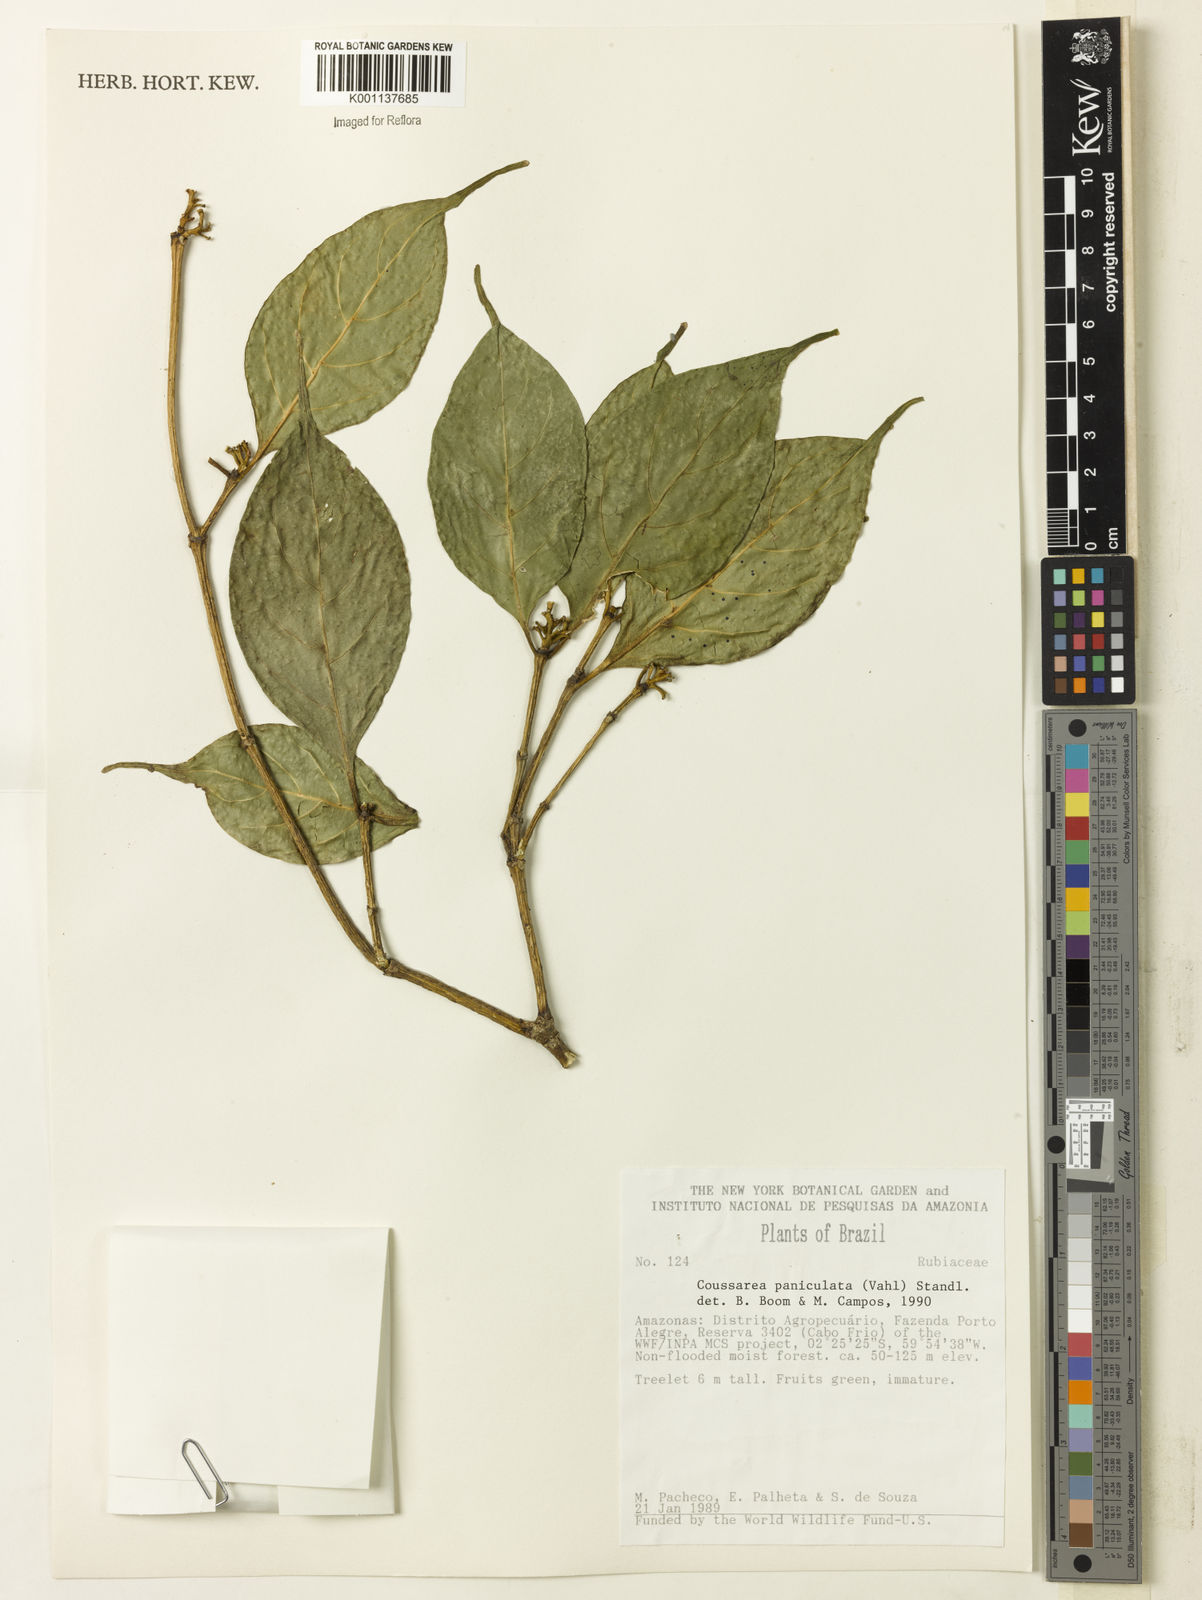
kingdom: Plantae
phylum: Tracheophyta
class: Magnoliopsida
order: Gentianales
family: Rubiaceae
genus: Coussarea
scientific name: Coussarea
